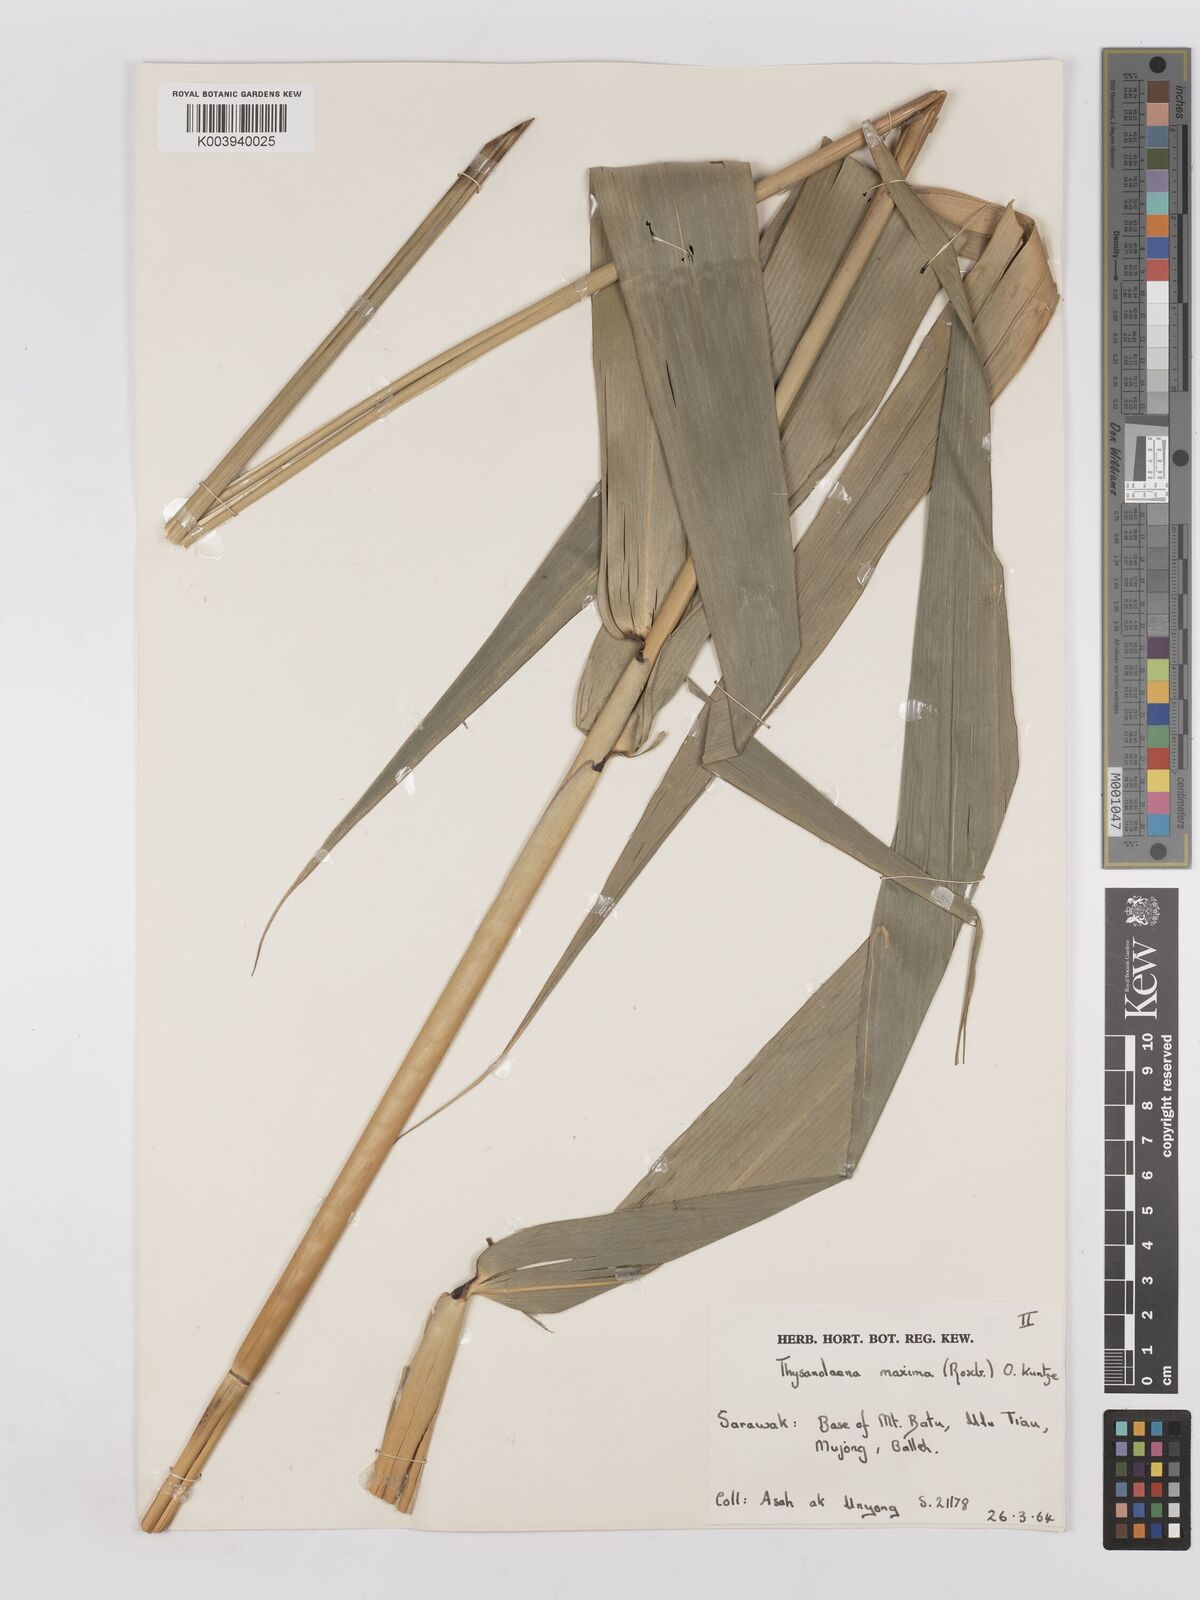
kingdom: Plantae
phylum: Tracheophyta
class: Liliopsida
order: Poales
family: Poaceae
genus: Thysanolaena
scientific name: Thysanolaena latifolia
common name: Tiger grass
